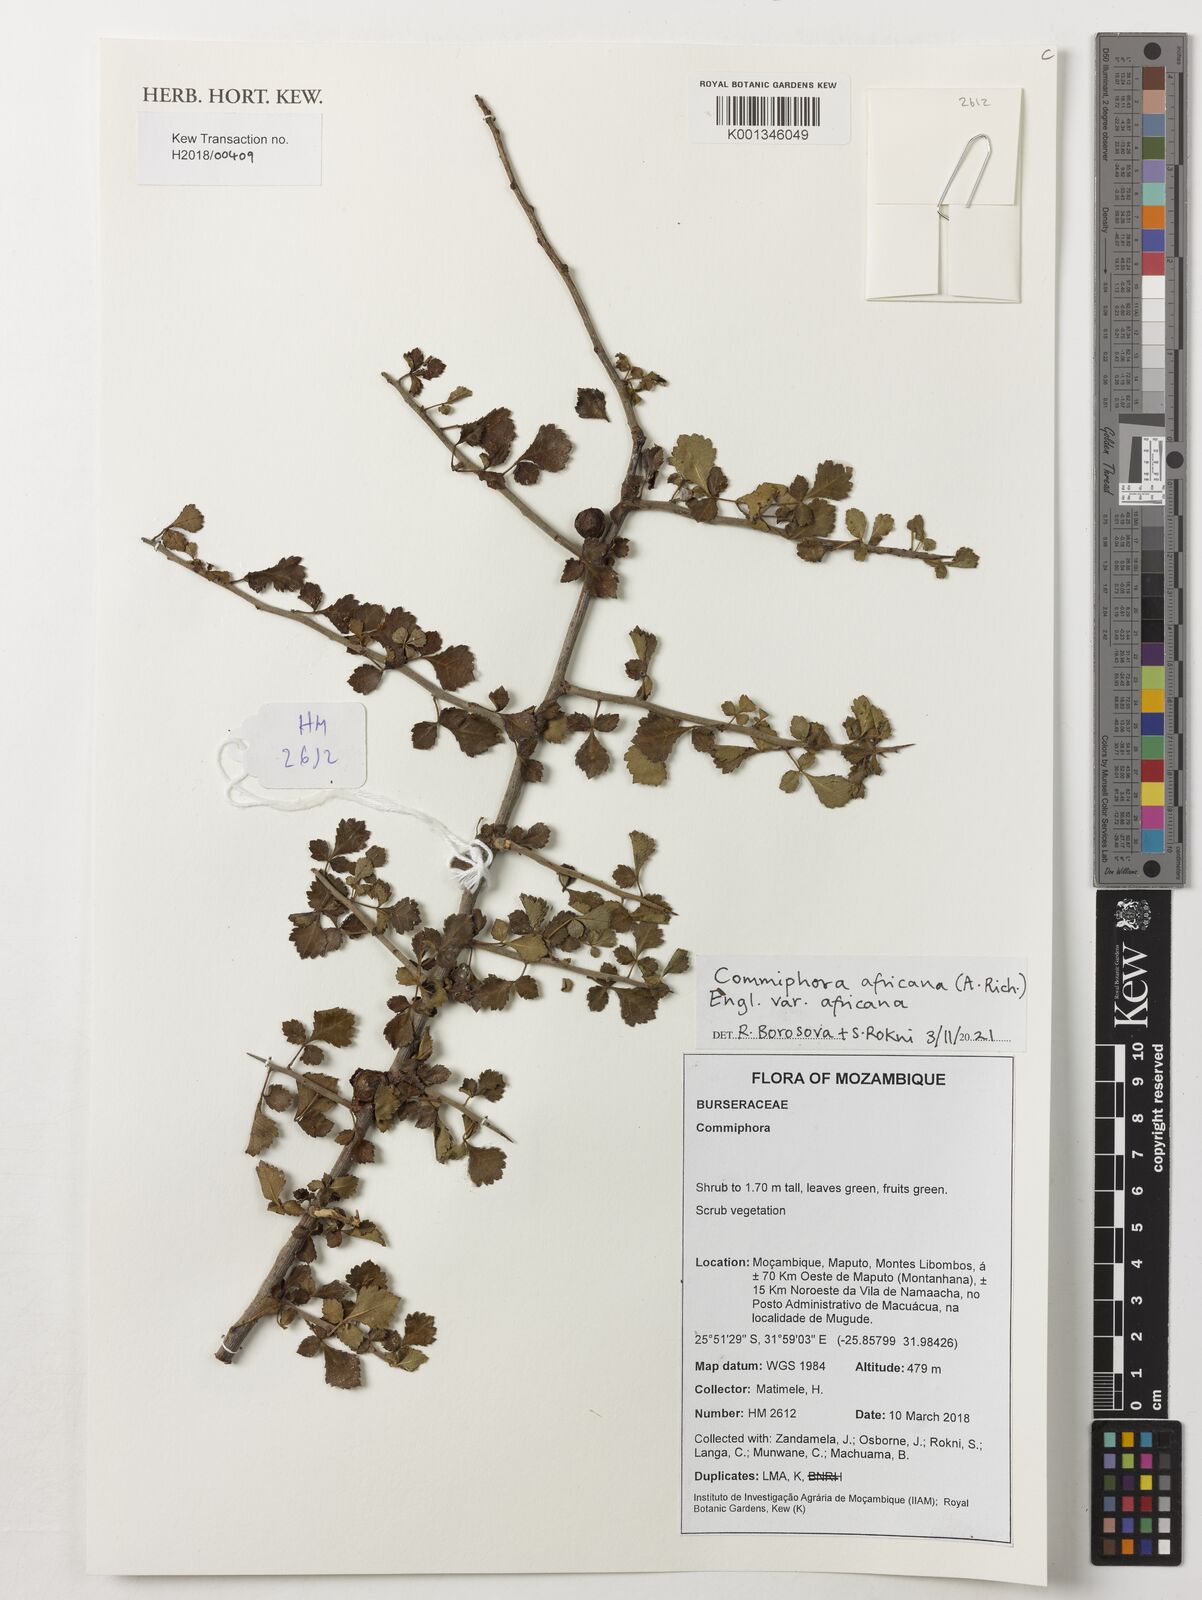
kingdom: Plantae
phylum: Tracheophyta
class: Magnoliopsida
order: Sapindales
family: Burseraceae
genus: Commiphora
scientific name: Commiphora
